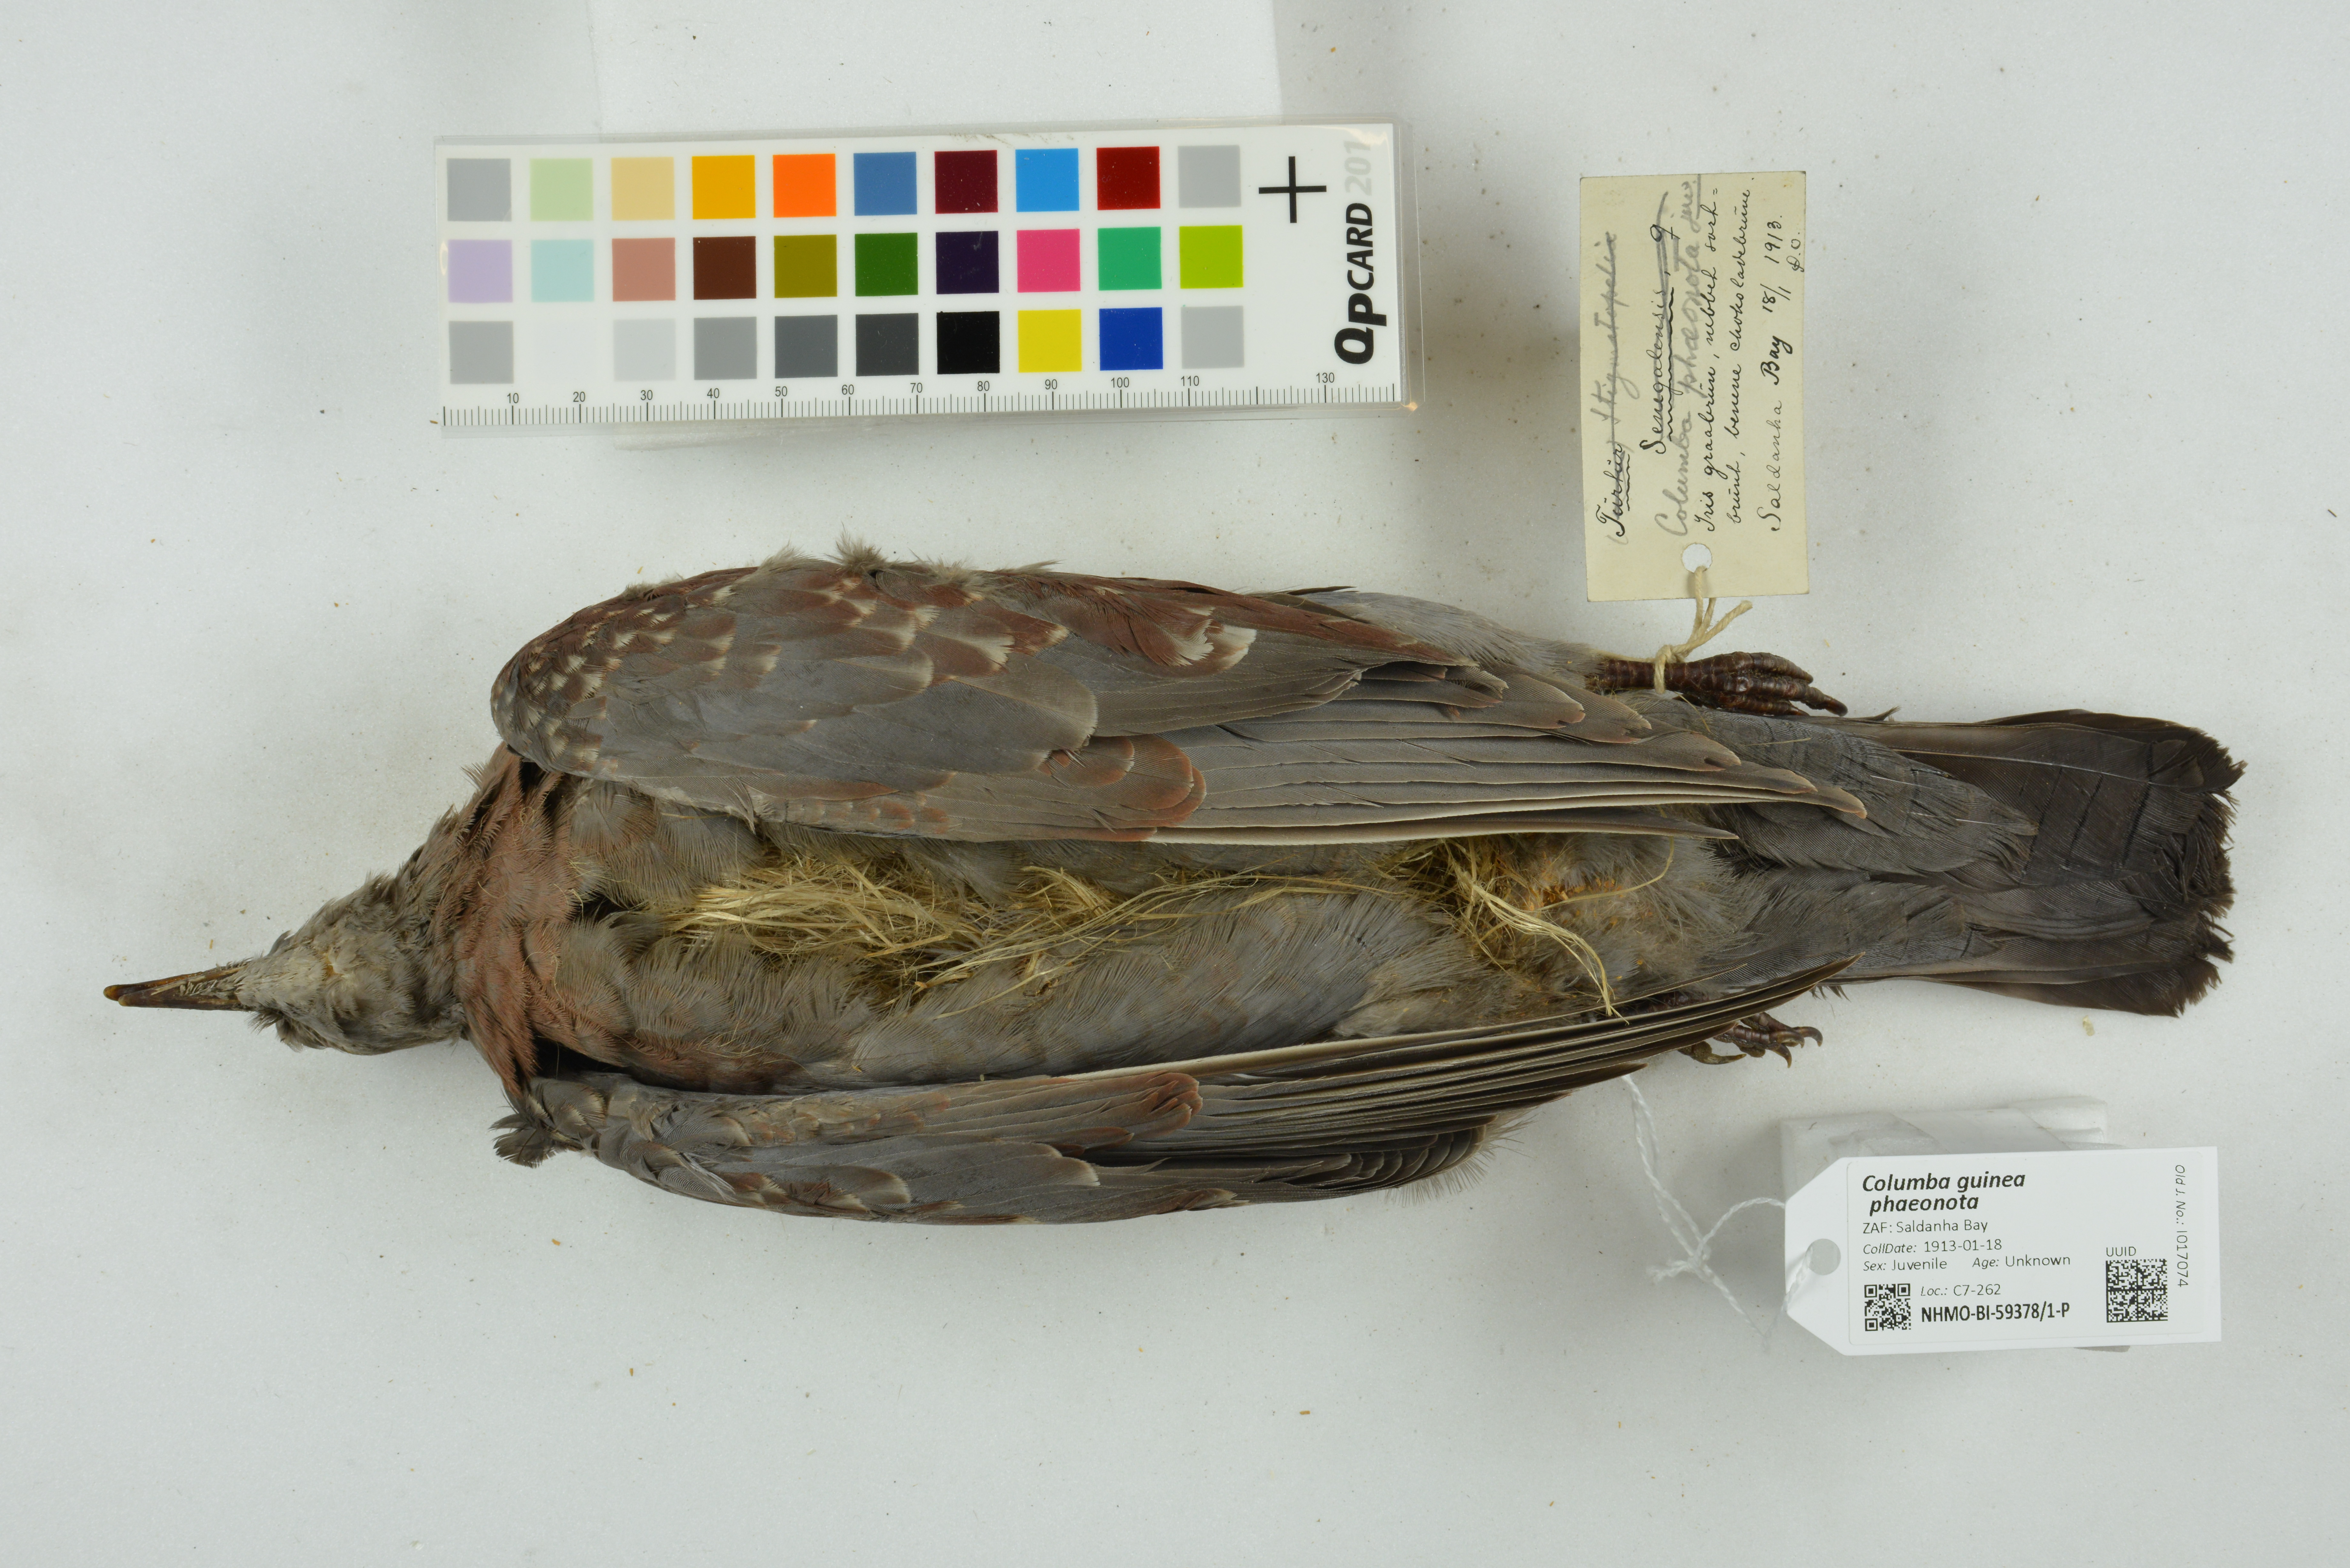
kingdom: Animalia
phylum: Chordata
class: Aves
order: Columbiformes
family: Columbidae
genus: Columba
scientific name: Columba guinea
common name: Speckled pigeon
